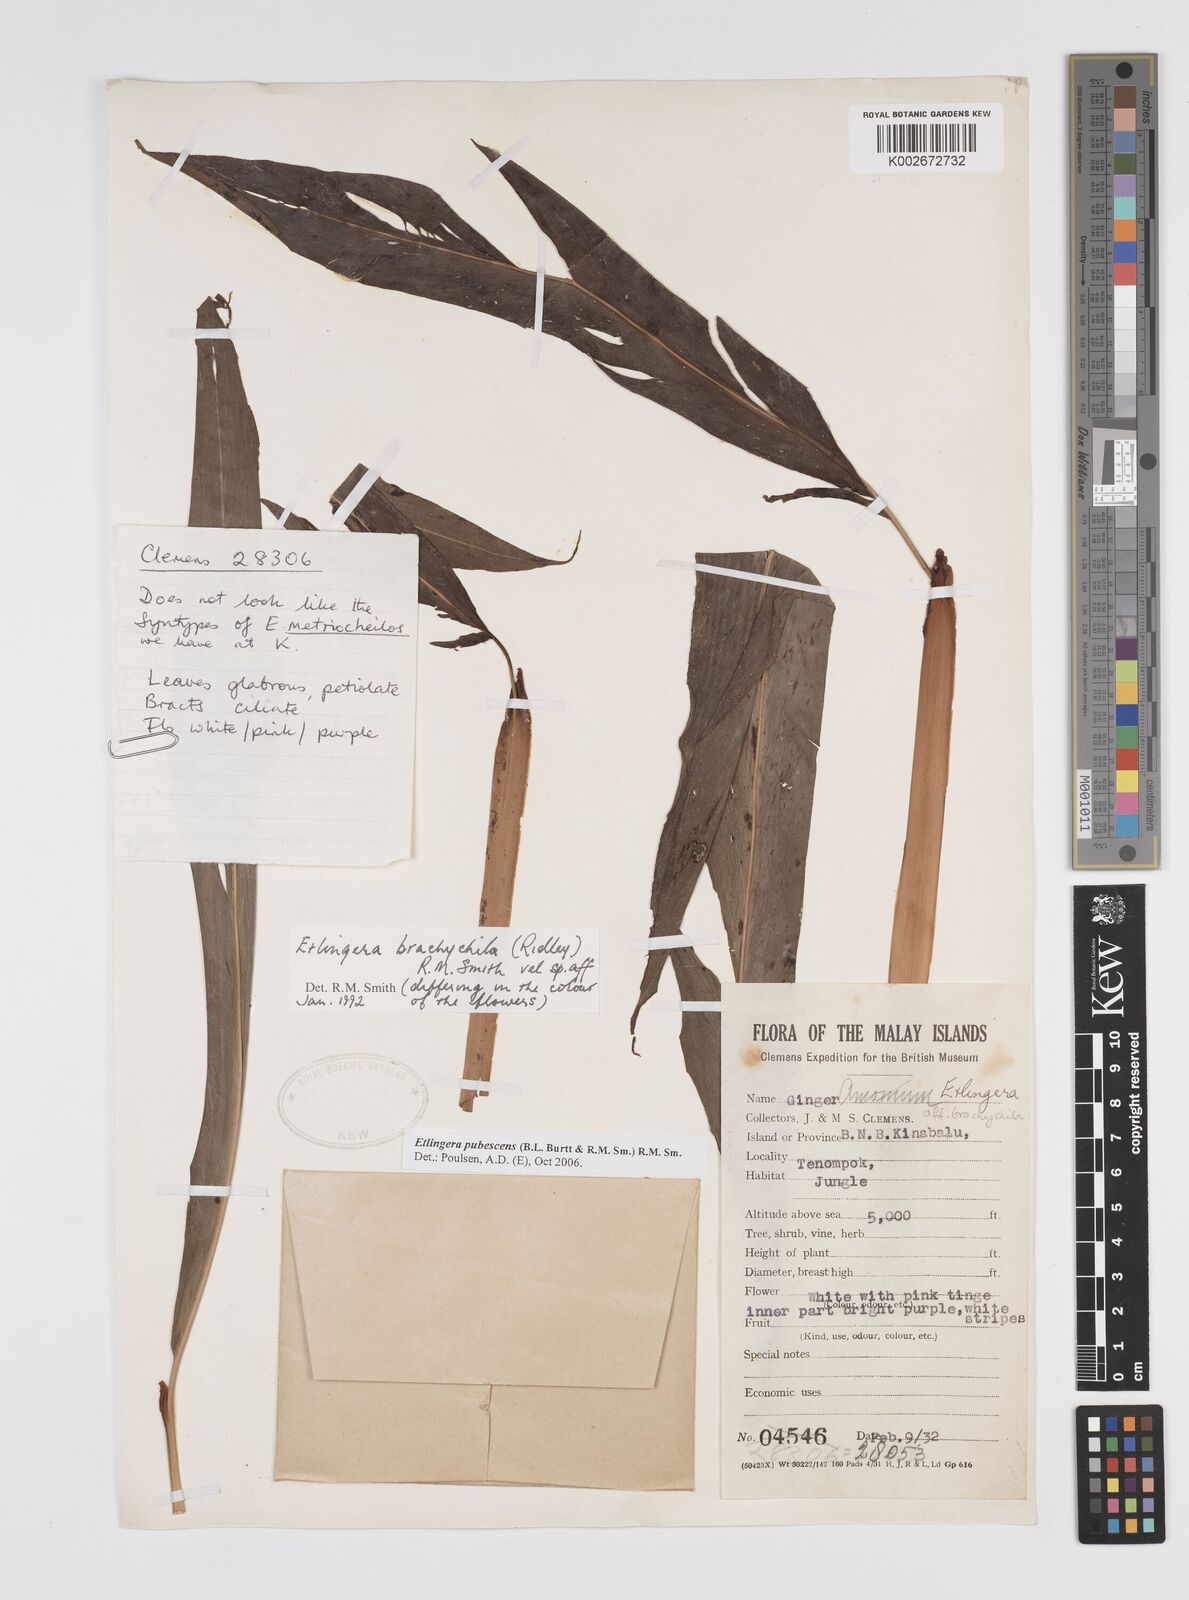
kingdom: Plantae
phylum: Tracheophyta
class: Liliopsida
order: Zingiberales
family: Zingiberaceae
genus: Etlingera
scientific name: Etlingera pubescens
